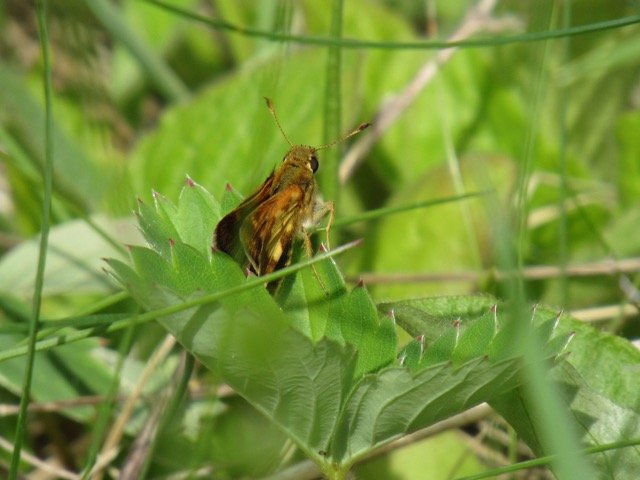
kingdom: Animalia
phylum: Arthropoda
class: Insecta
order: Lepidoptera
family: Hesperiidae
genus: Polites
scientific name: Polites coras
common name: Peck's Skipper
